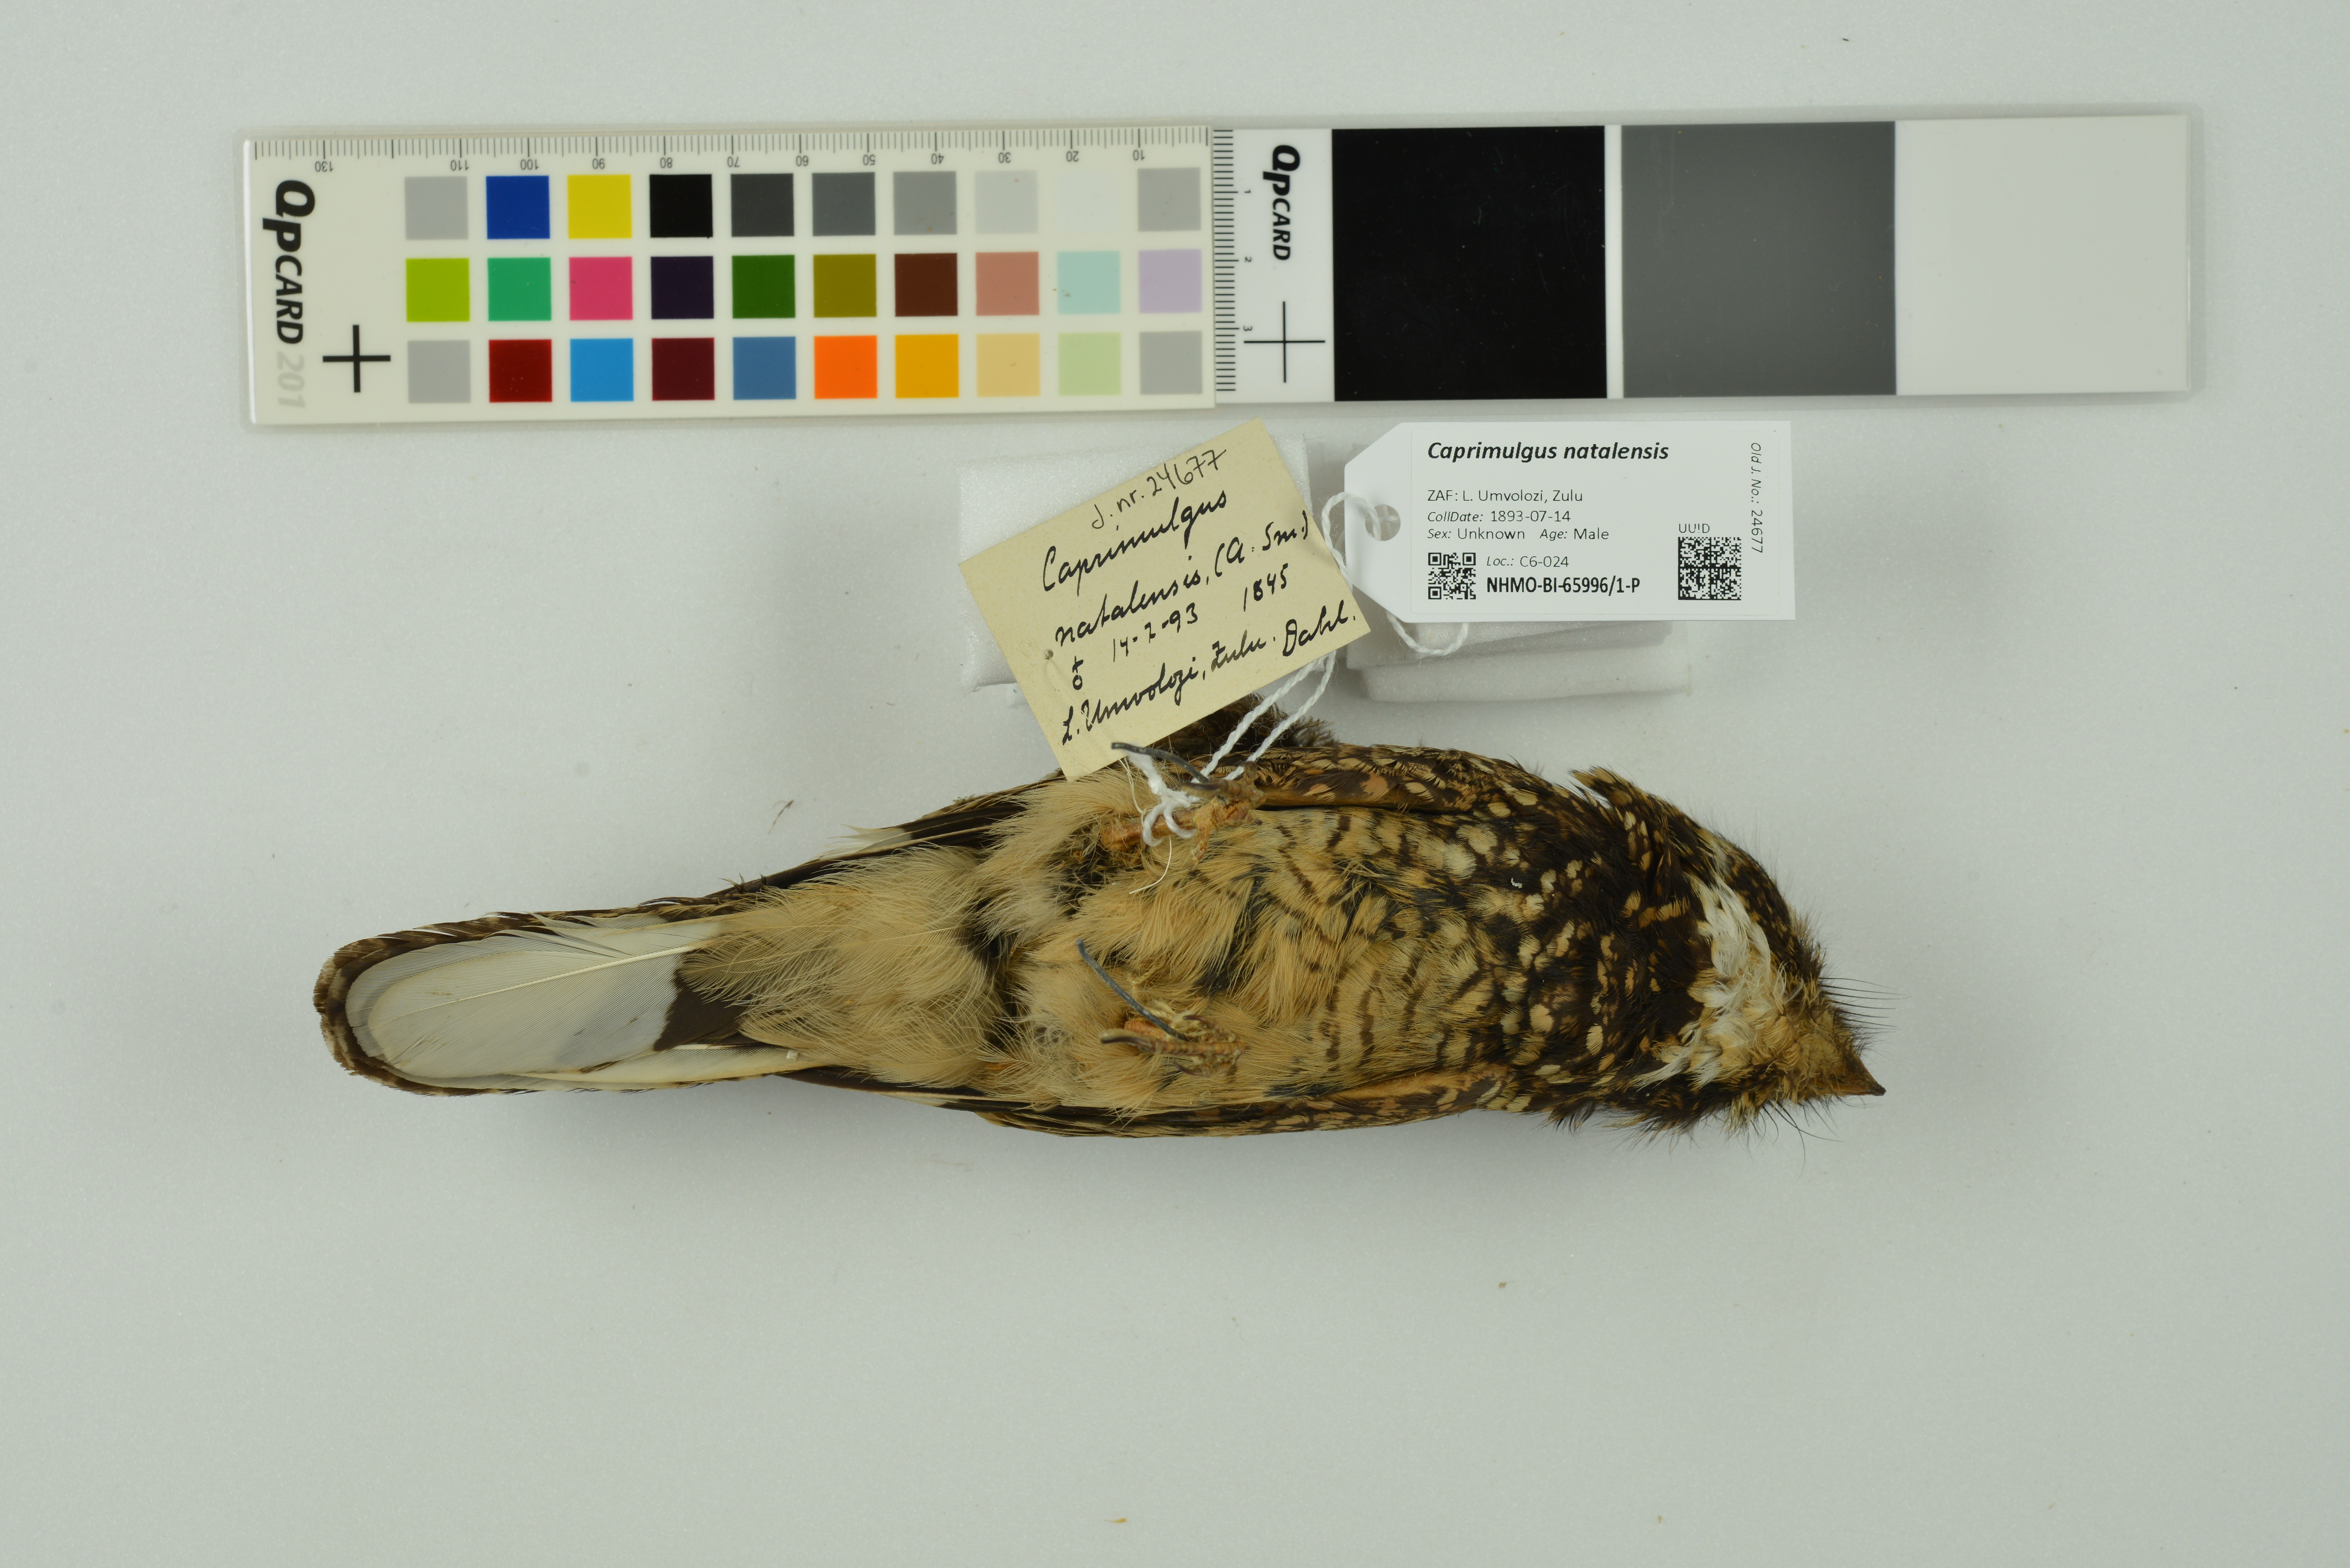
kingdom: Animalia
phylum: Chordata
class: Aves
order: Caprimulgiformes
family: Caprimulgidae
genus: Caprimulgus
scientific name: Caprimulgus natalensis
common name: Swamp nightjar
